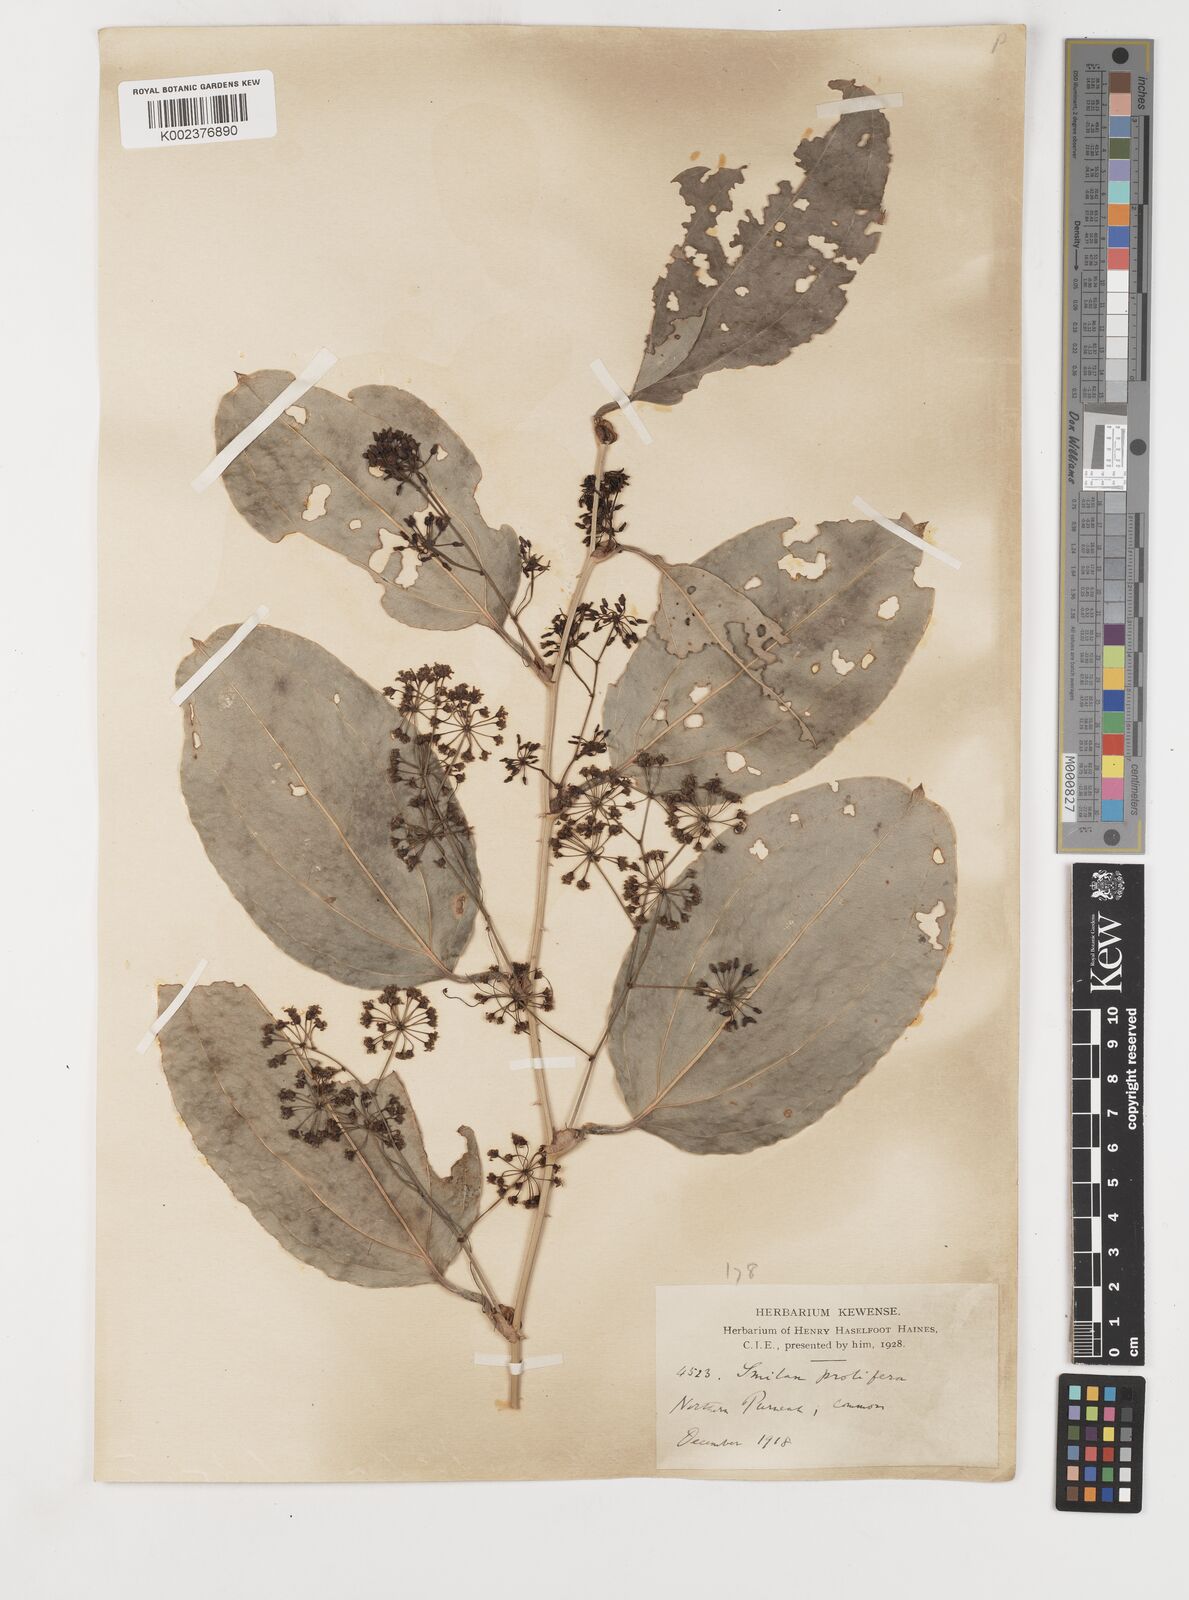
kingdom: Plantae
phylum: Tracheophyta
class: Liliopsida
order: Liliales
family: Smilacaceae
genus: Smilax
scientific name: Smilax prolifera
